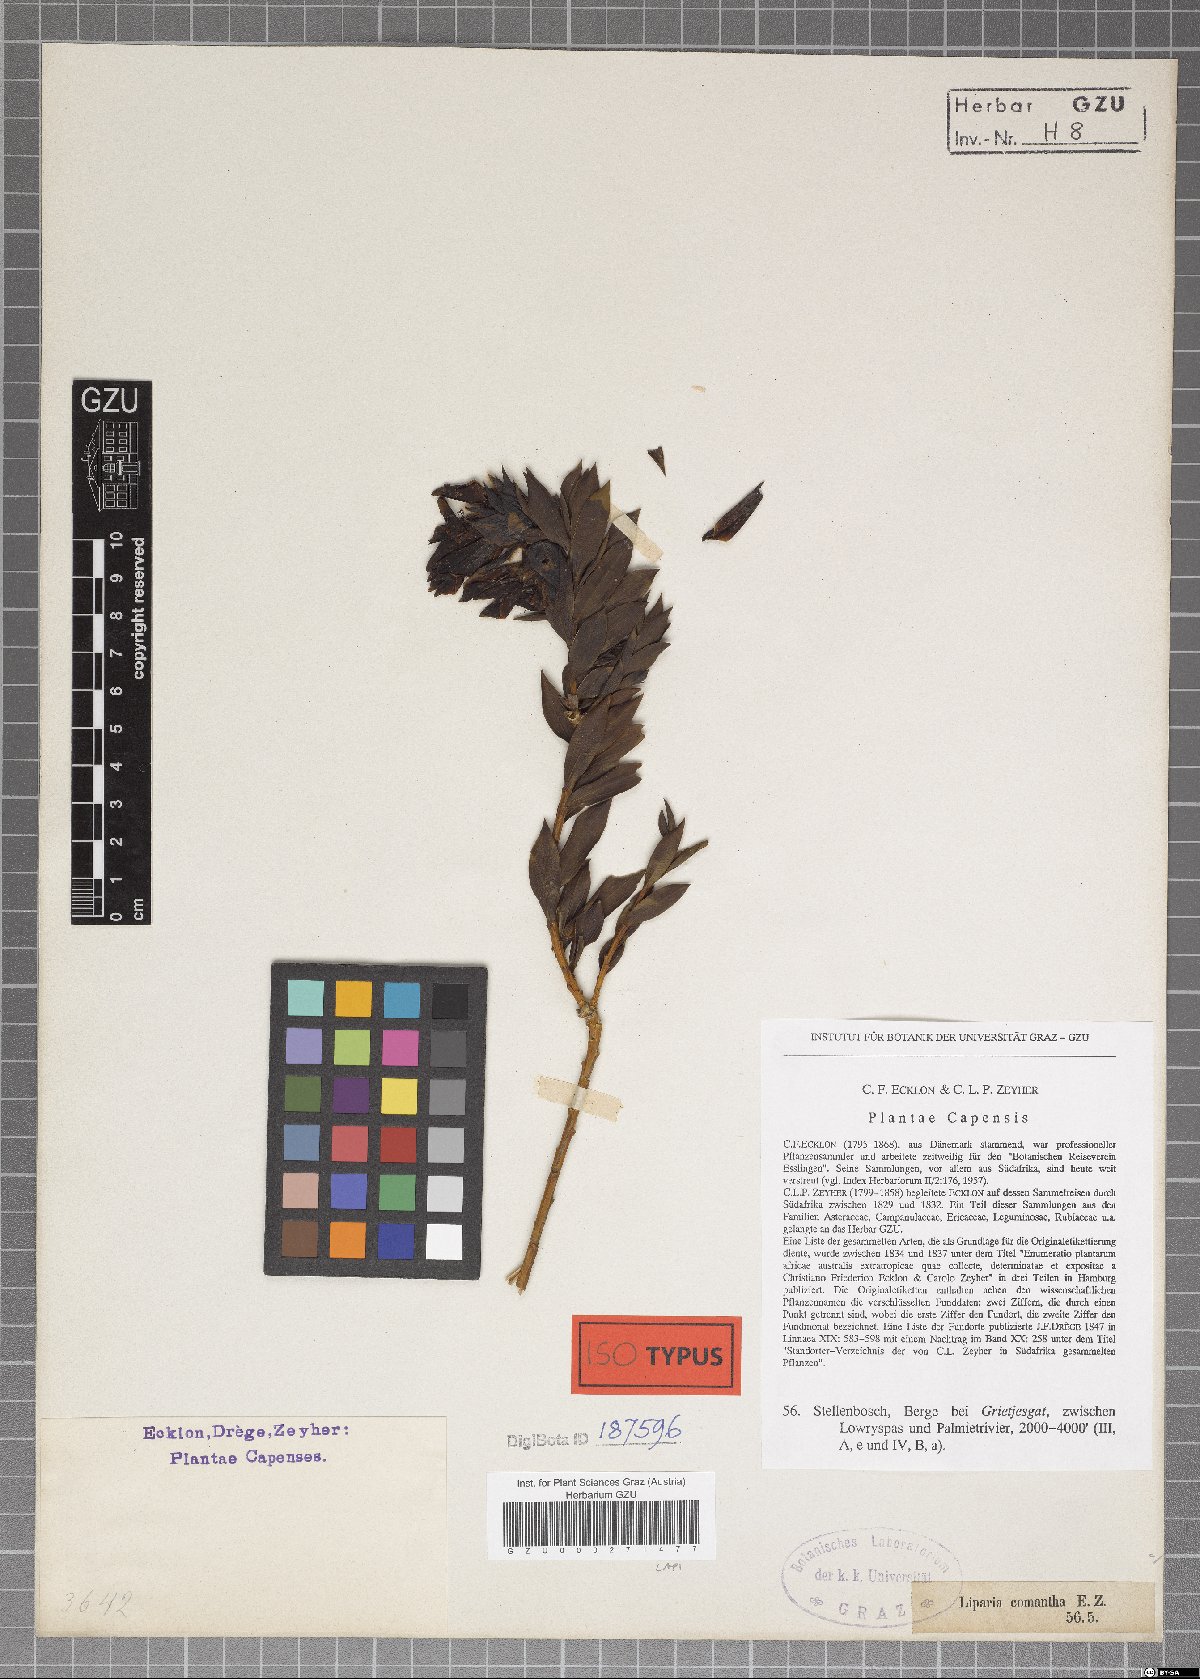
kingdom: Plantae
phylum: Tracheophyta
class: Magnoliopsida
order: Fabales
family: Fabaceae
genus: Liparia
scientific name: Liparia splendens
